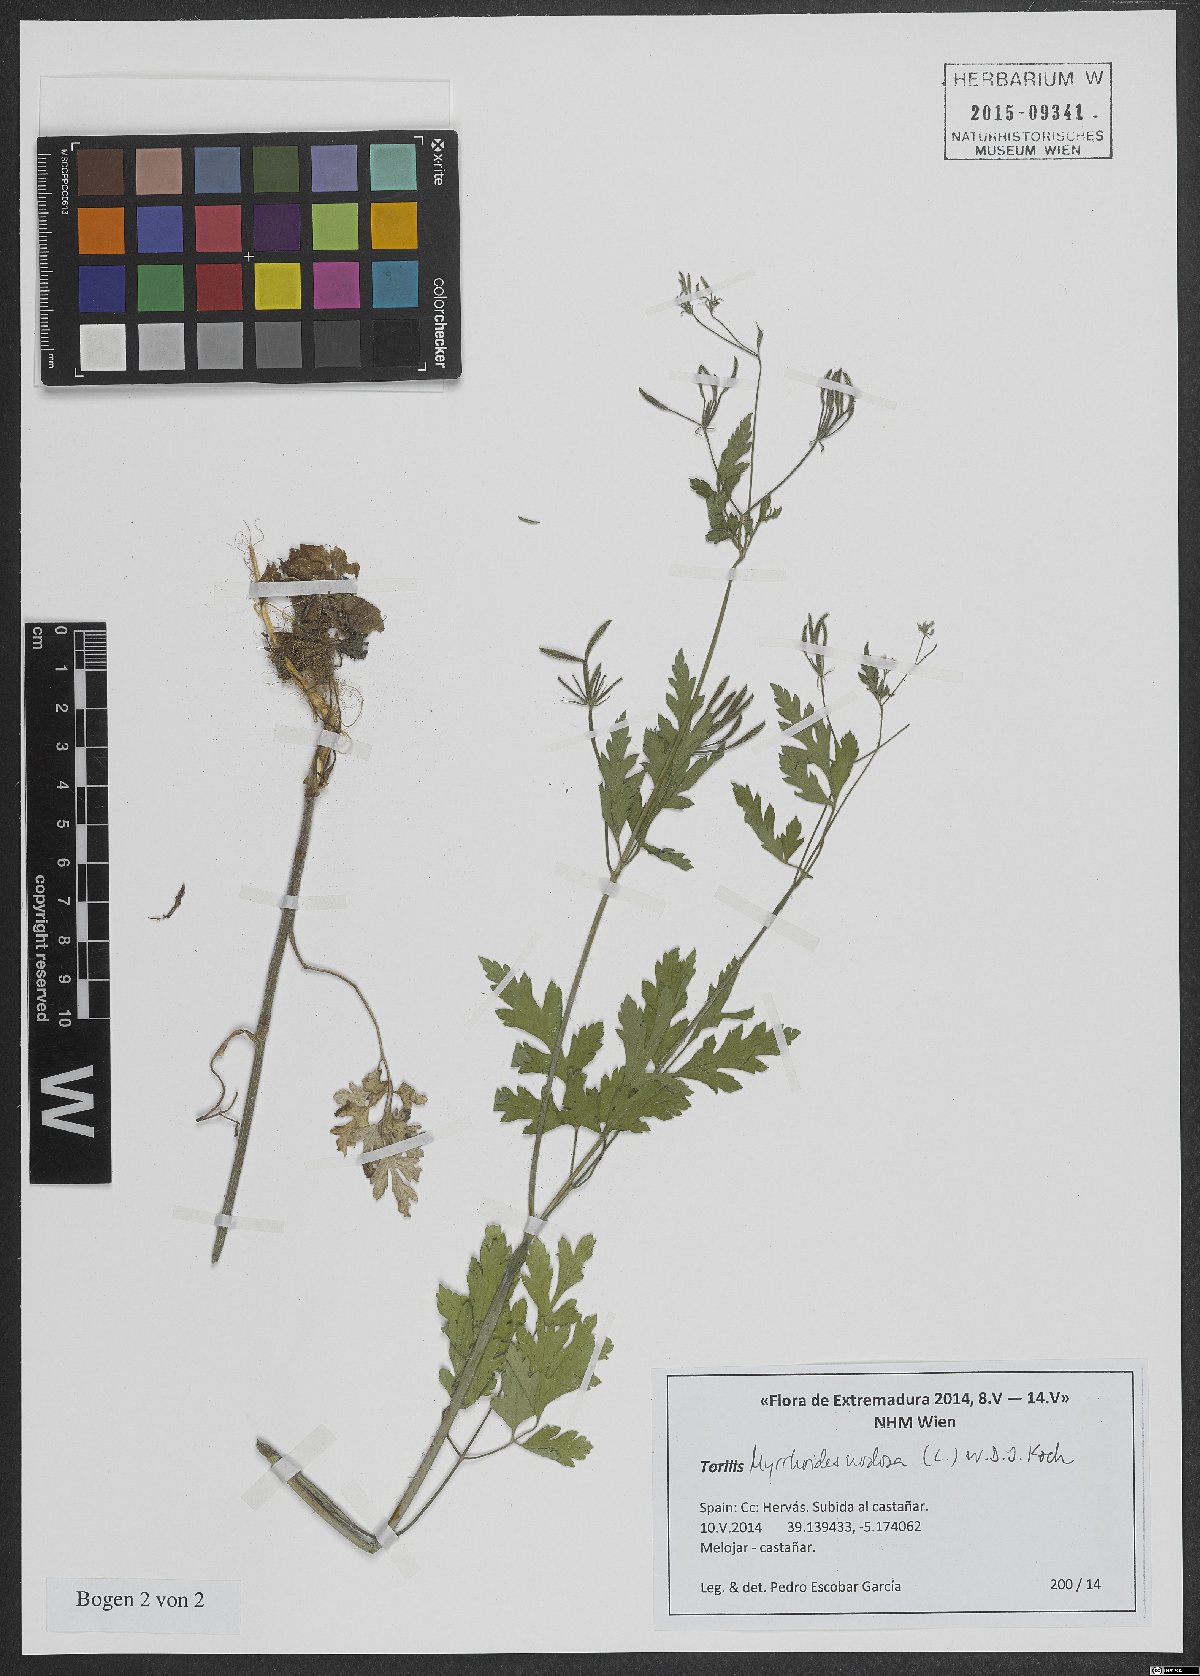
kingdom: Plantae
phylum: Tracheophyta
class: Magnoliopsida
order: Apiales
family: Apiaceae
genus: Chaerophyllum
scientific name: Chaerophyllum nodosum
